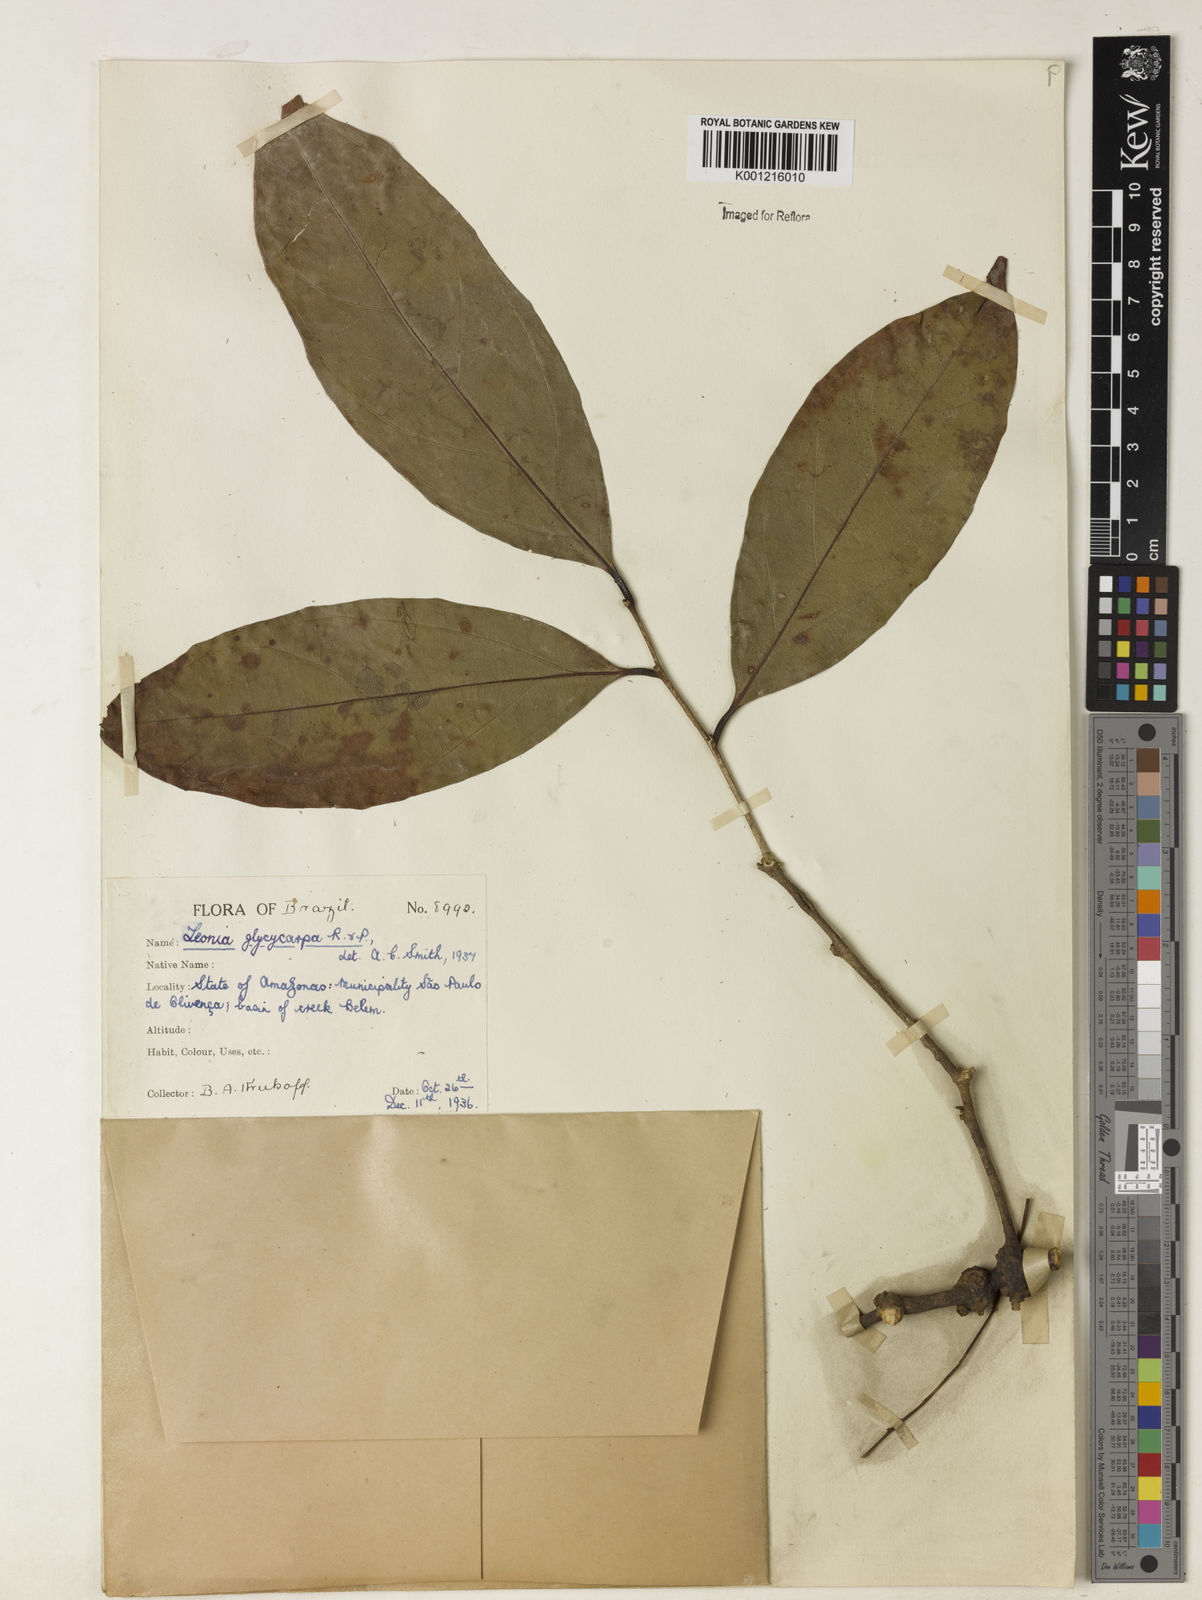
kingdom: Plantae
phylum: Tracheophyta
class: Magnoliopsida
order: Malpighiales
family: Violaceae
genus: Leonia
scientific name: Leonia glycycarpa
